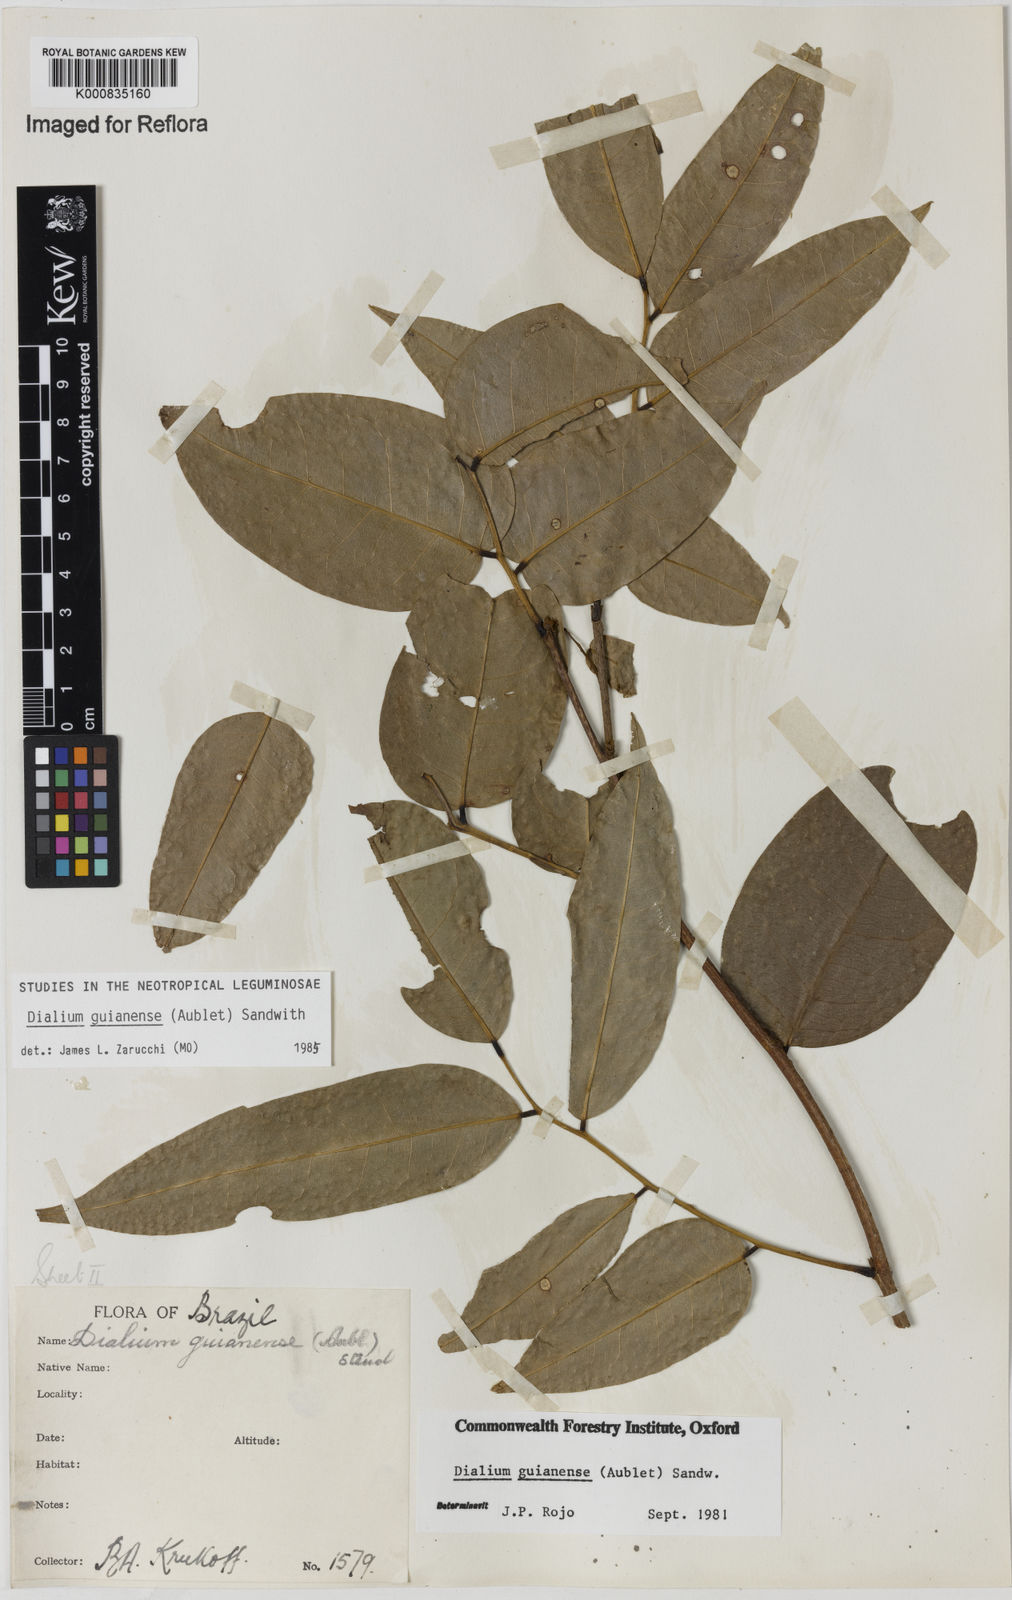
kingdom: Plantae
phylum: Tracheophyta
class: Magnoliopsida
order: Fabales
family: Fabaceae
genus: Dialium
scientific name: Dialium guianense
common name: Ironwood
